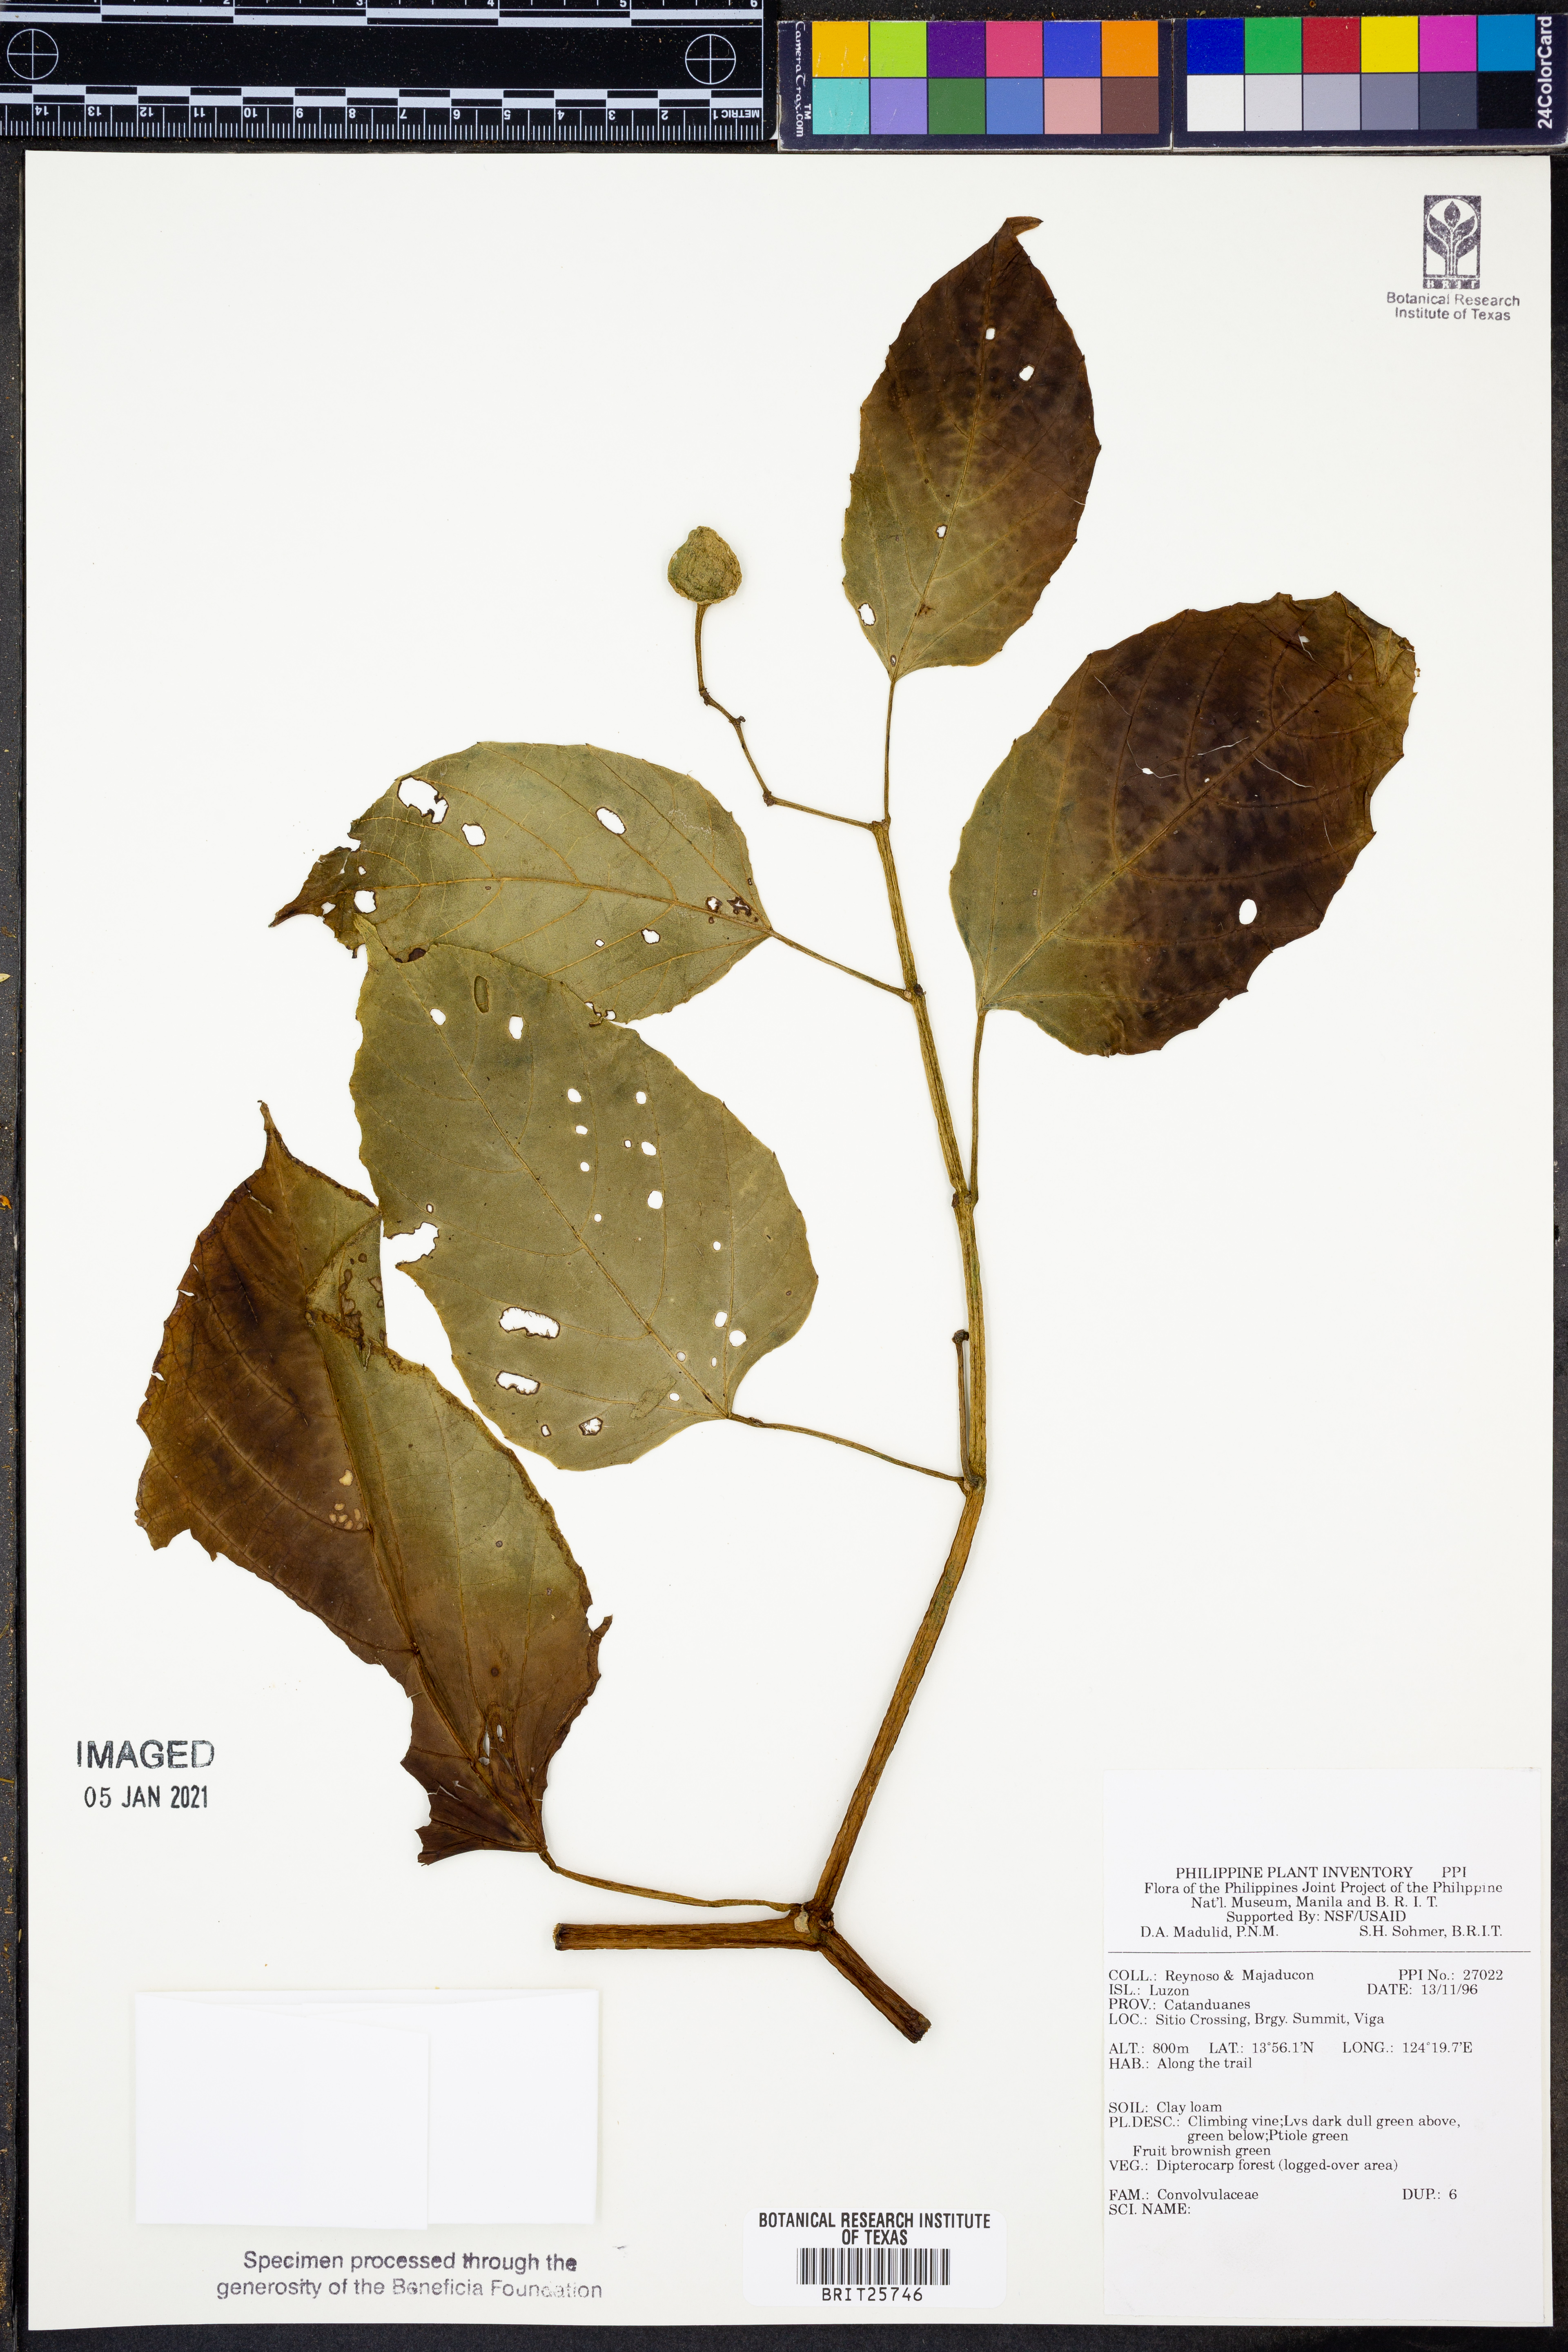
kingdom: Plantae
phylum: Tracheophyta
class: Magnoliopsida
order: Solanales
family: Convolvulaceae
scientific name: Convolvulaceae
